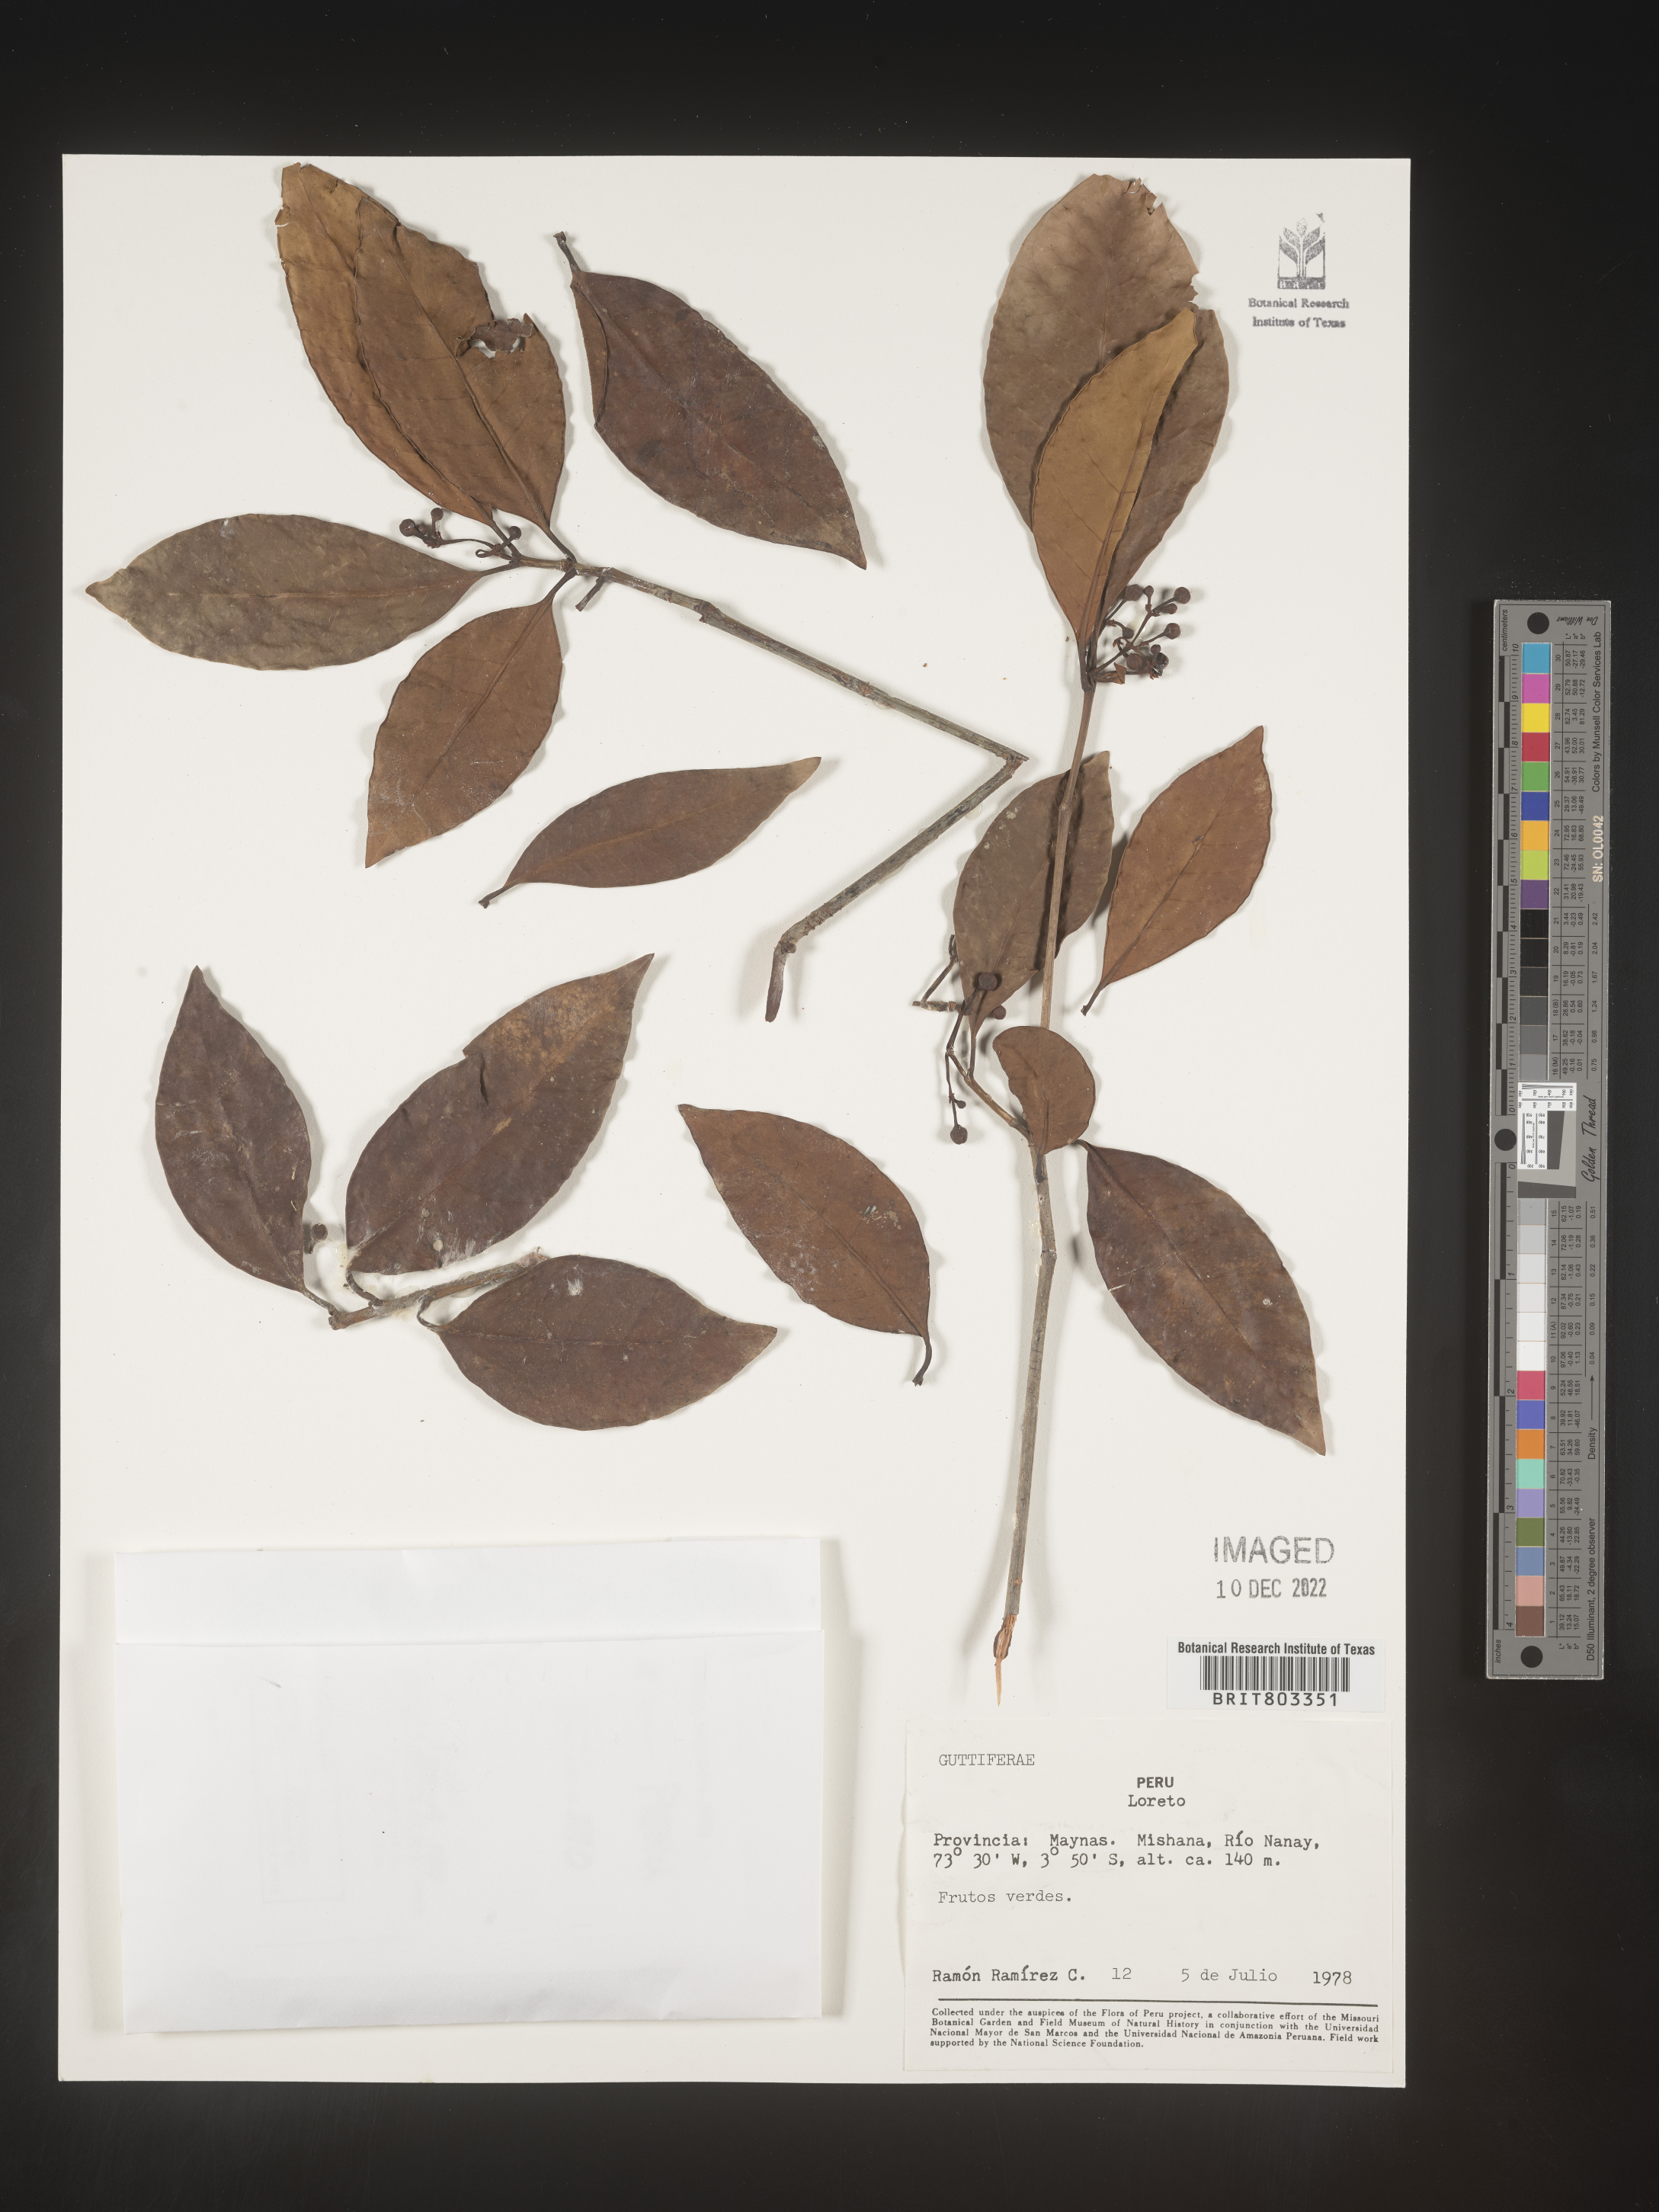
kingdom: Plantae
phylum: Tracheophyta
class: Magnoliopsida
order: Malpighiales
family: Clusiaceae
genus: Tovomita
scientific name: Tovomita
